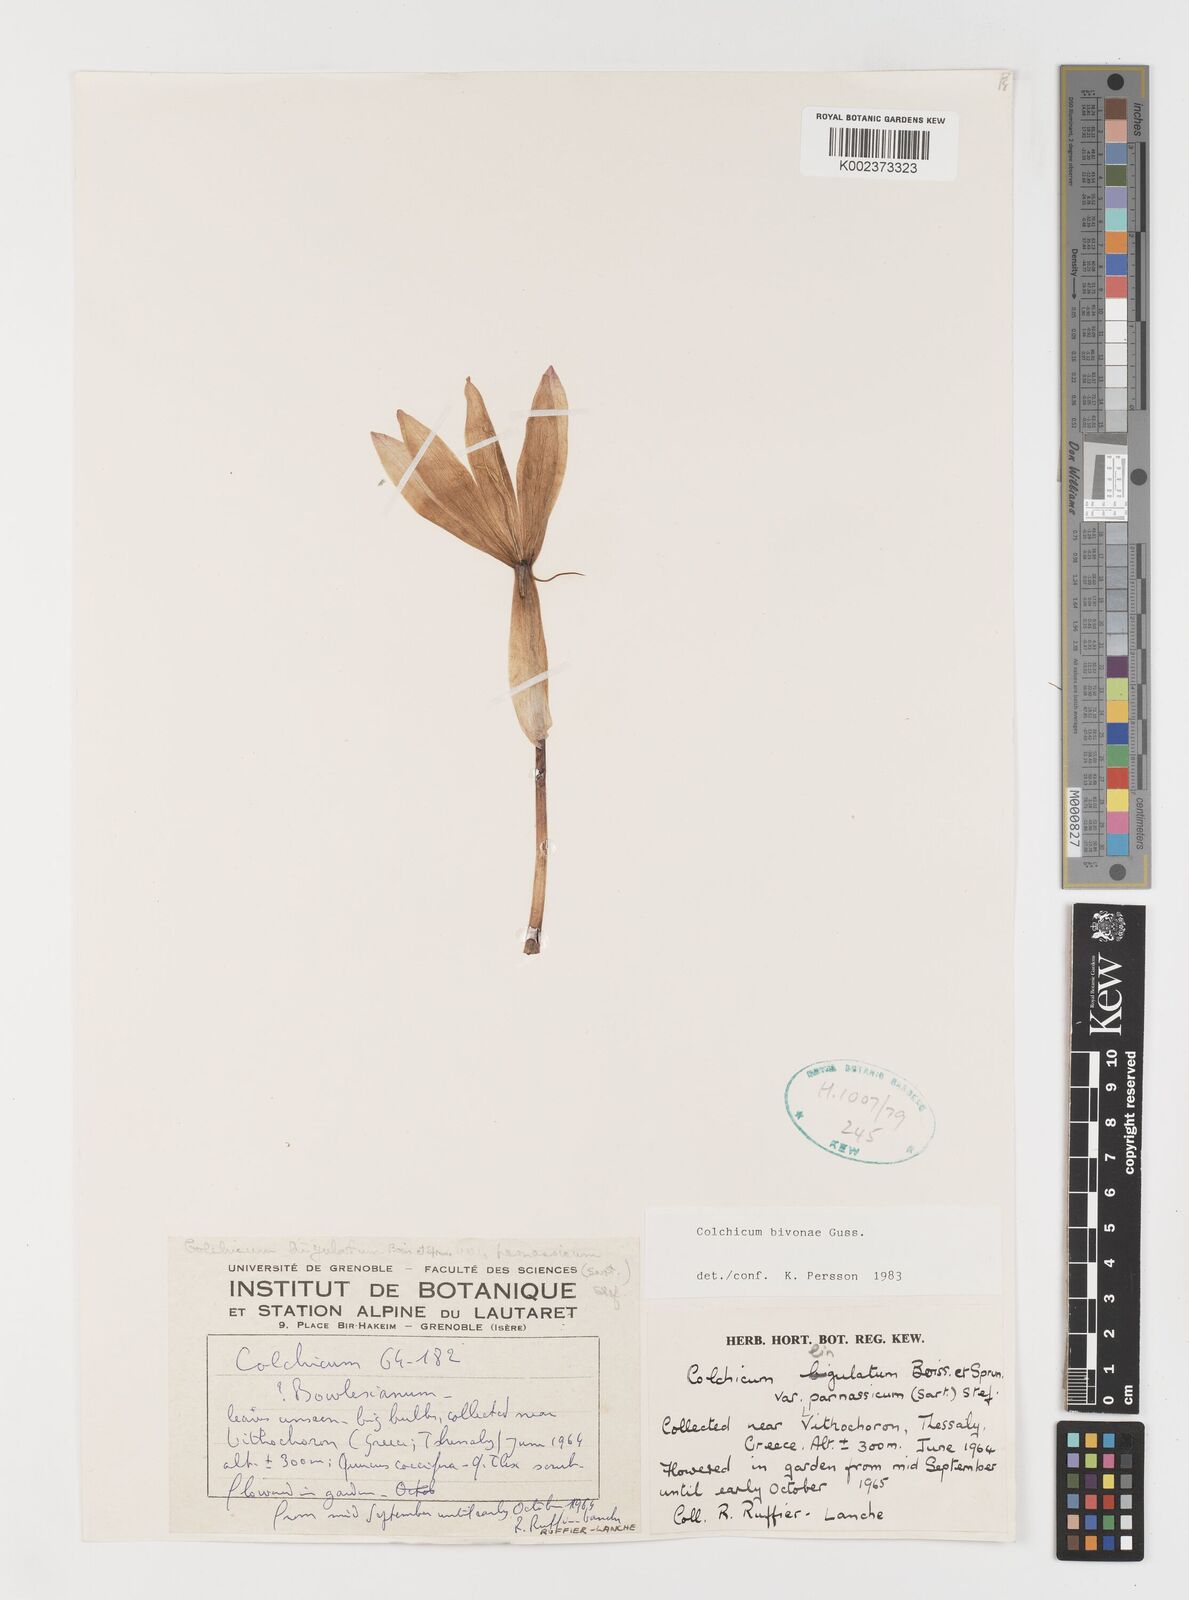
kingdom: Plantae
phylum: Tracheophyta
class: Liliopsida
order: Liliales
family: Colchicaceae
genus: Colchicum
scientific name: Colchicum bivonae
